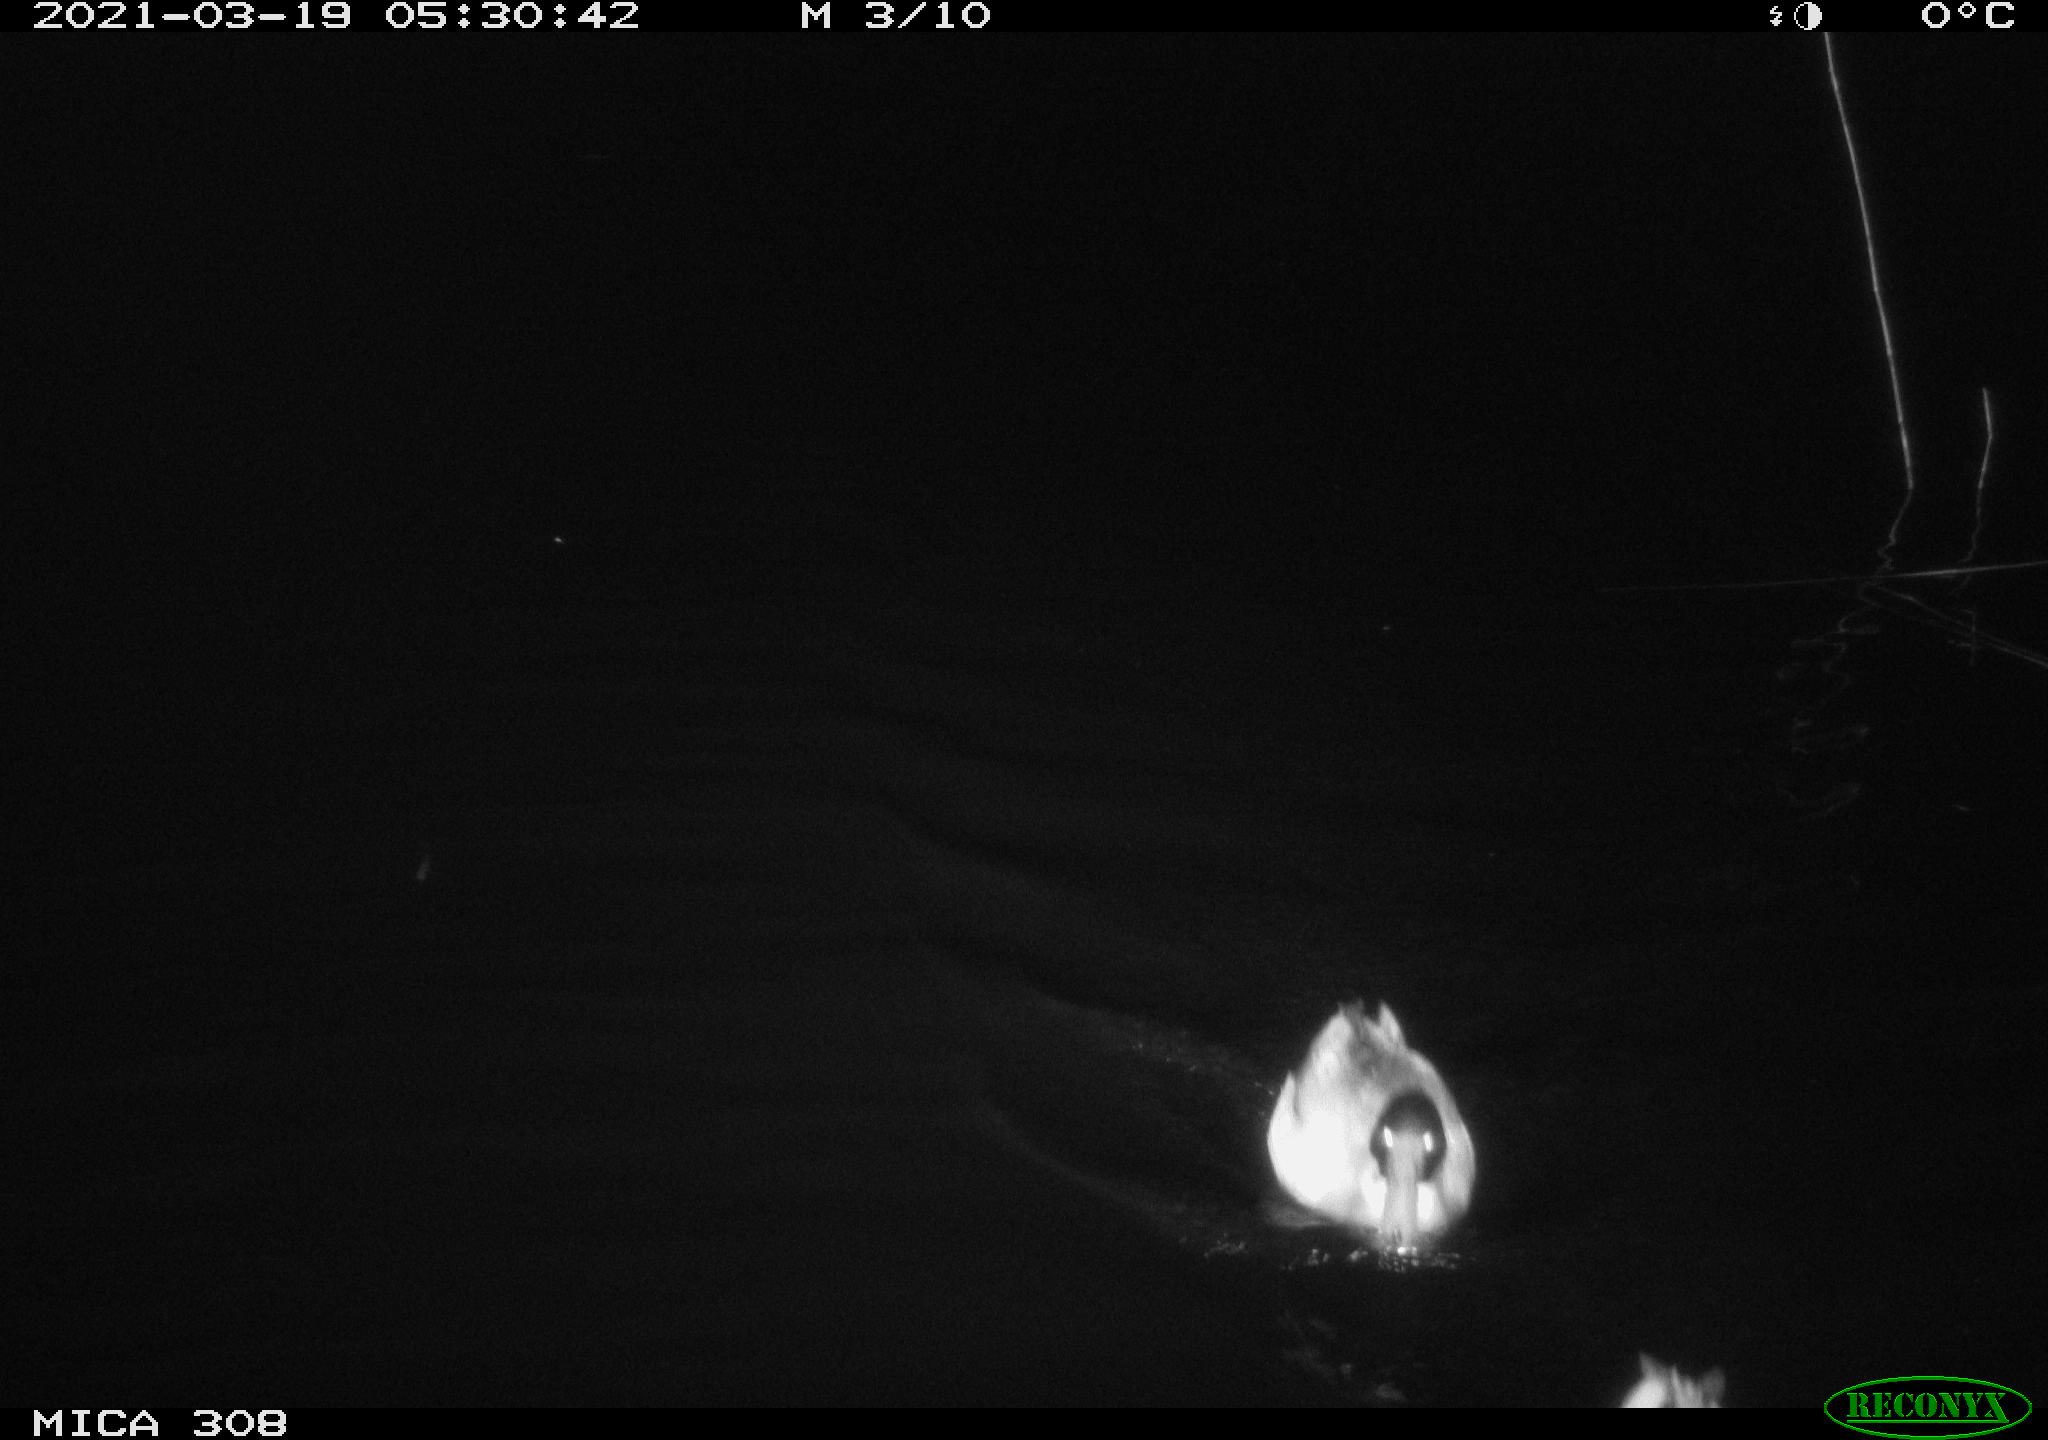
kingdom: Animalia
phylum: Chordata
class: Aves
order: Anseriformes
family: Anatidae
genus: Anas
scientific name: Anas platyrhynchos
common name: Mallard
